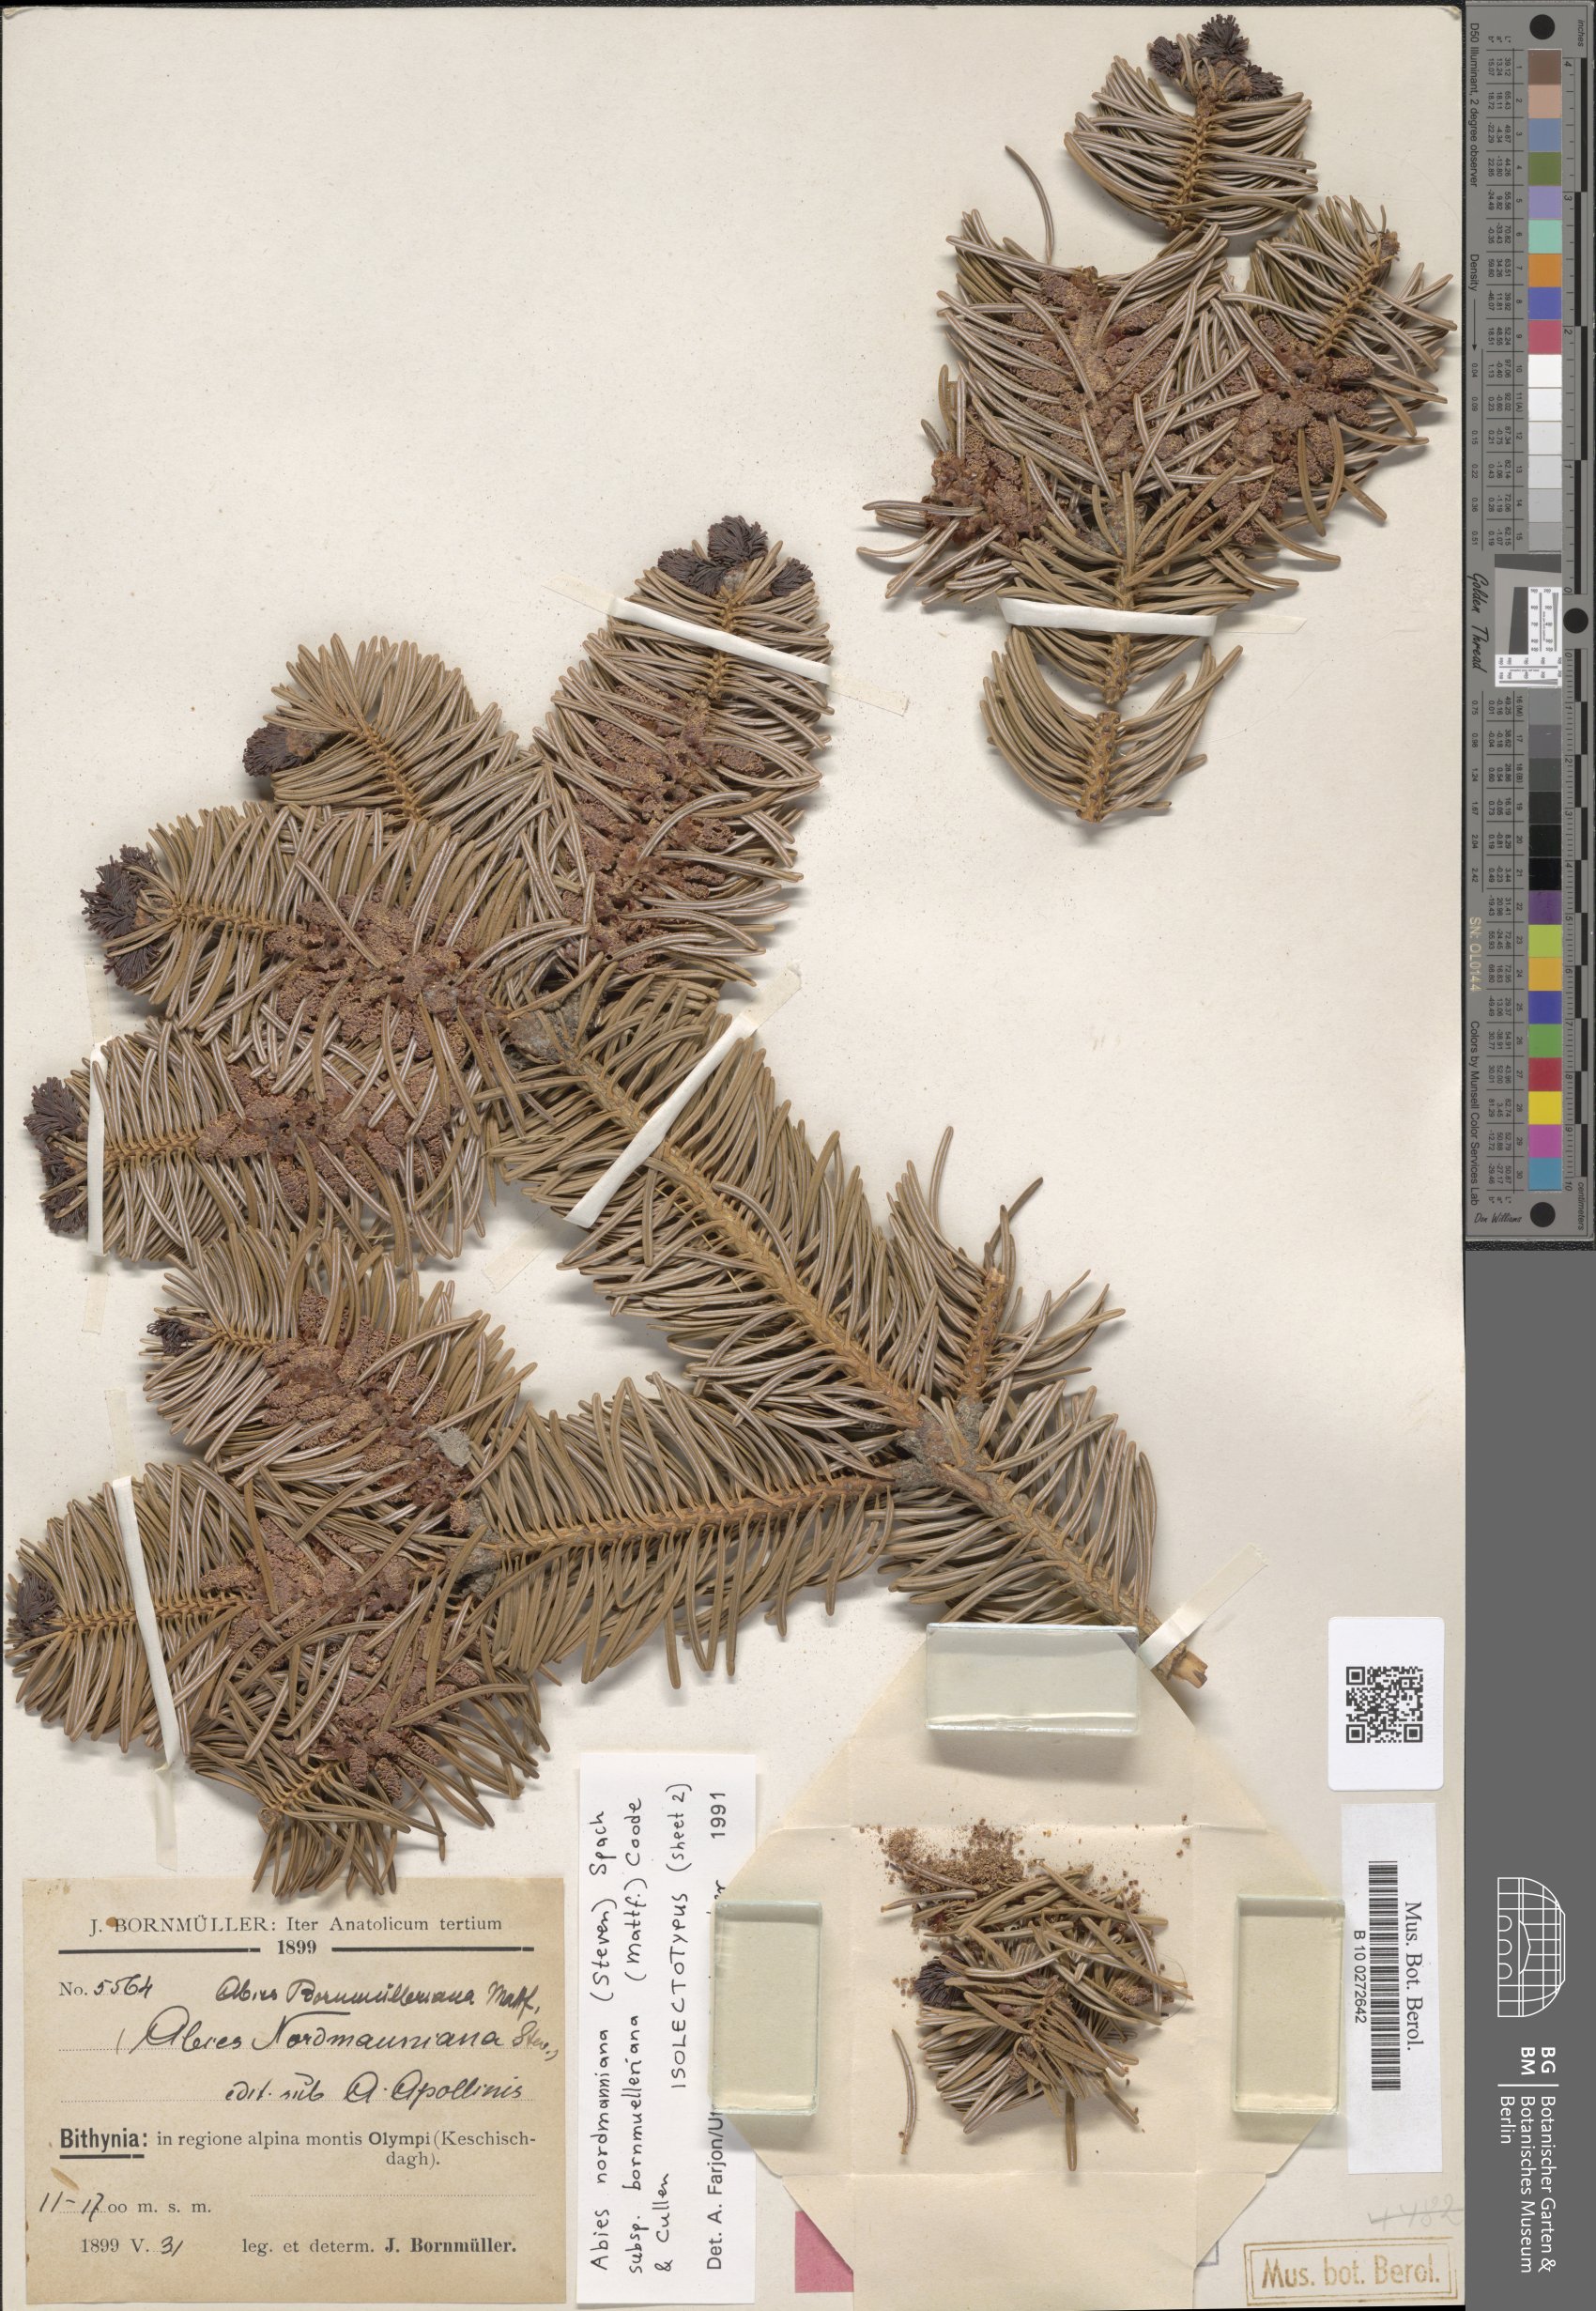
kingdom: Plantae
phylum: Tracheophyta
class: Pinopsida
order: Pinales
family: Pinaceae
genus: Abies
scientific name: Abies nordmanniana
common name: Caucasian fir
